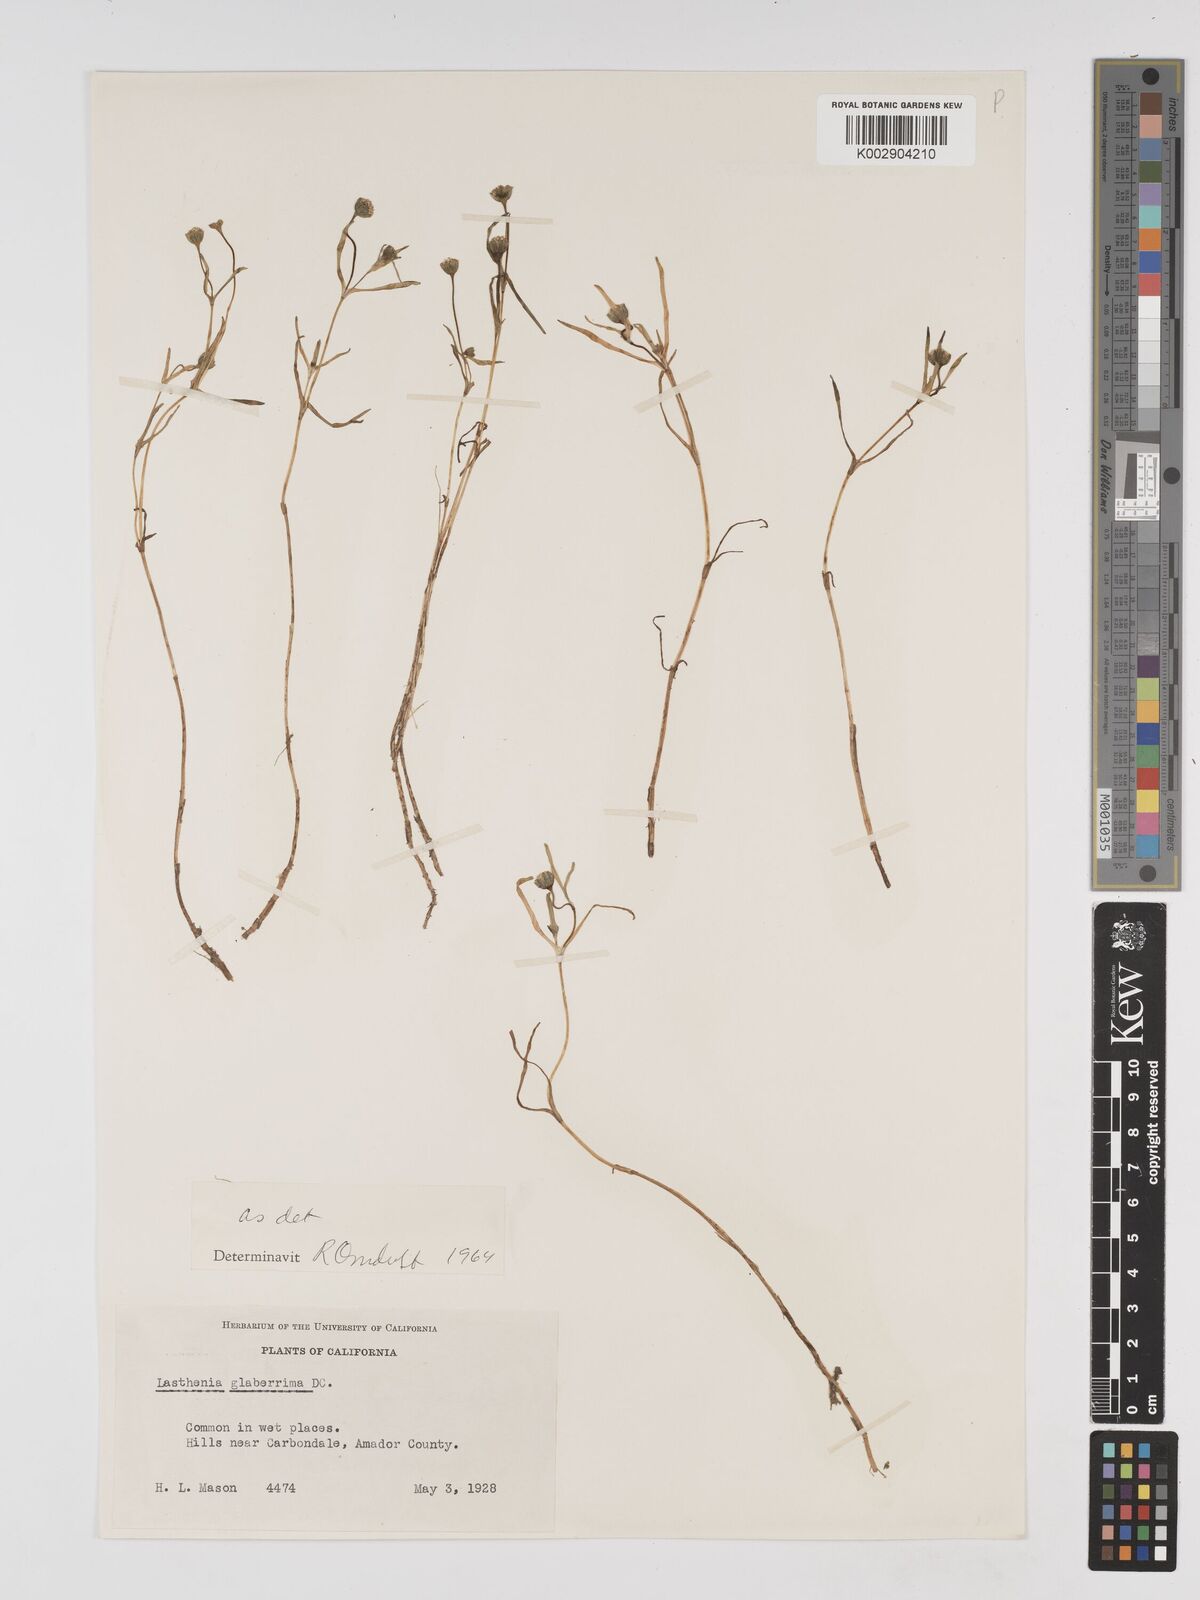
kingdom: Plantae
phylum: Tracheophyta
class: Magnoliopsida
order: Asterales
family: Asteraceae
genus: Lasthenia
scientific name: Lasthenia glaberrima
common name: Smooth goldfields
